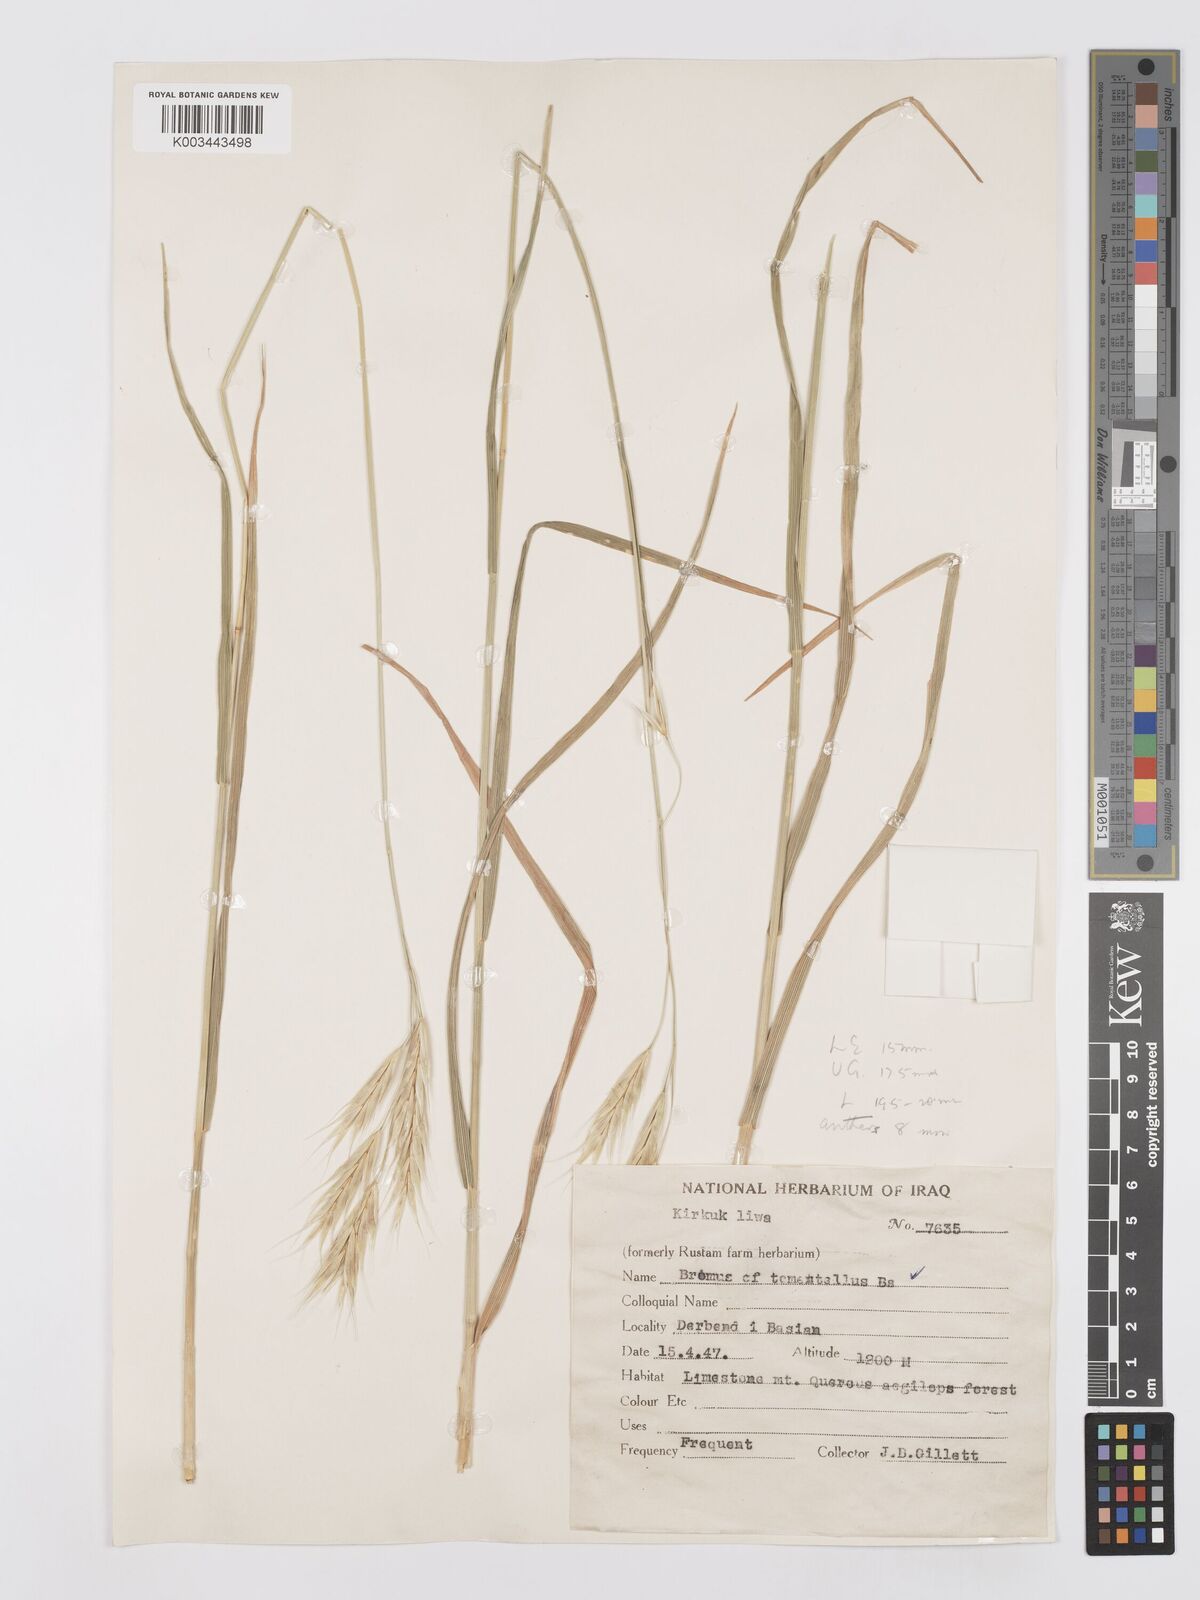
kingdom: Plantae
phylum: Tracheophyta
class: Liliopsida
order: Poales
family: Poaceae
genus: Bromus
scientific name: Bromus tomentellus
